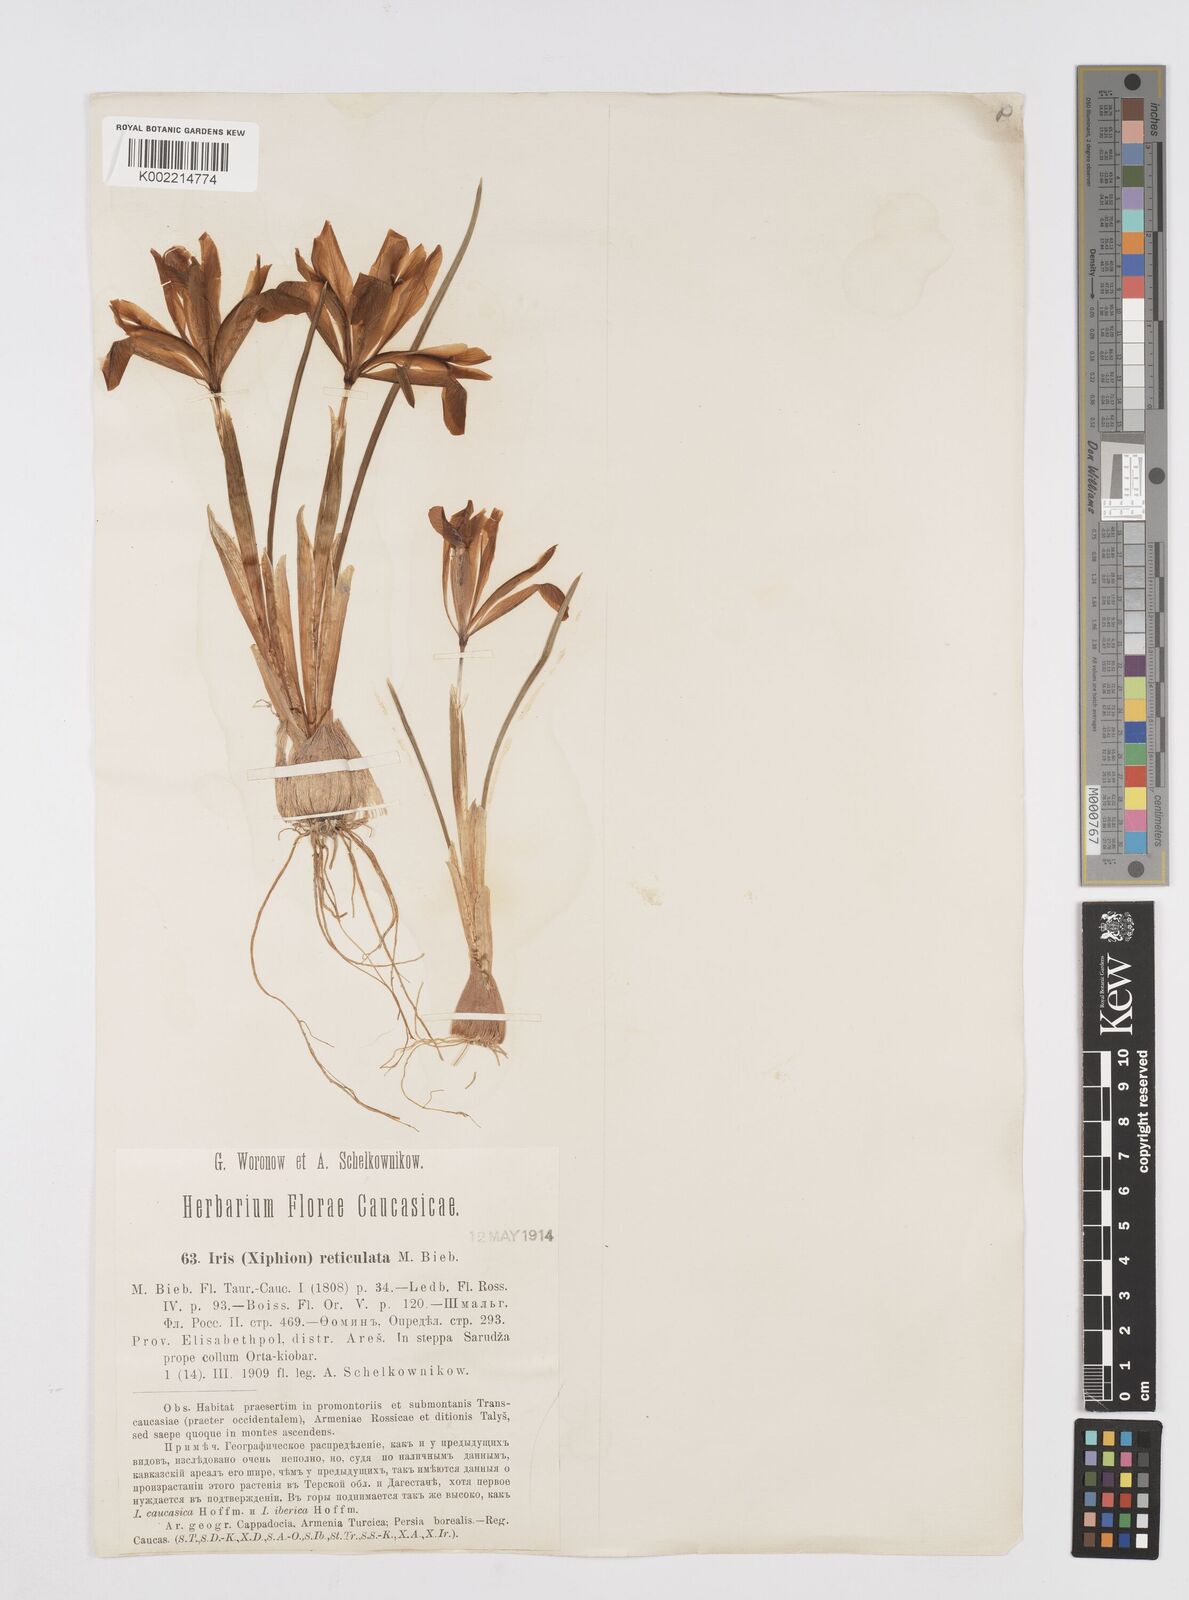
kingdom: Plantae
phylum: Tracheophyta
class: Liliopsida
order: Asparagales
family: Iridaceae
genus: Iris
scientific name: Iris reticulata
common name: Netted iris
